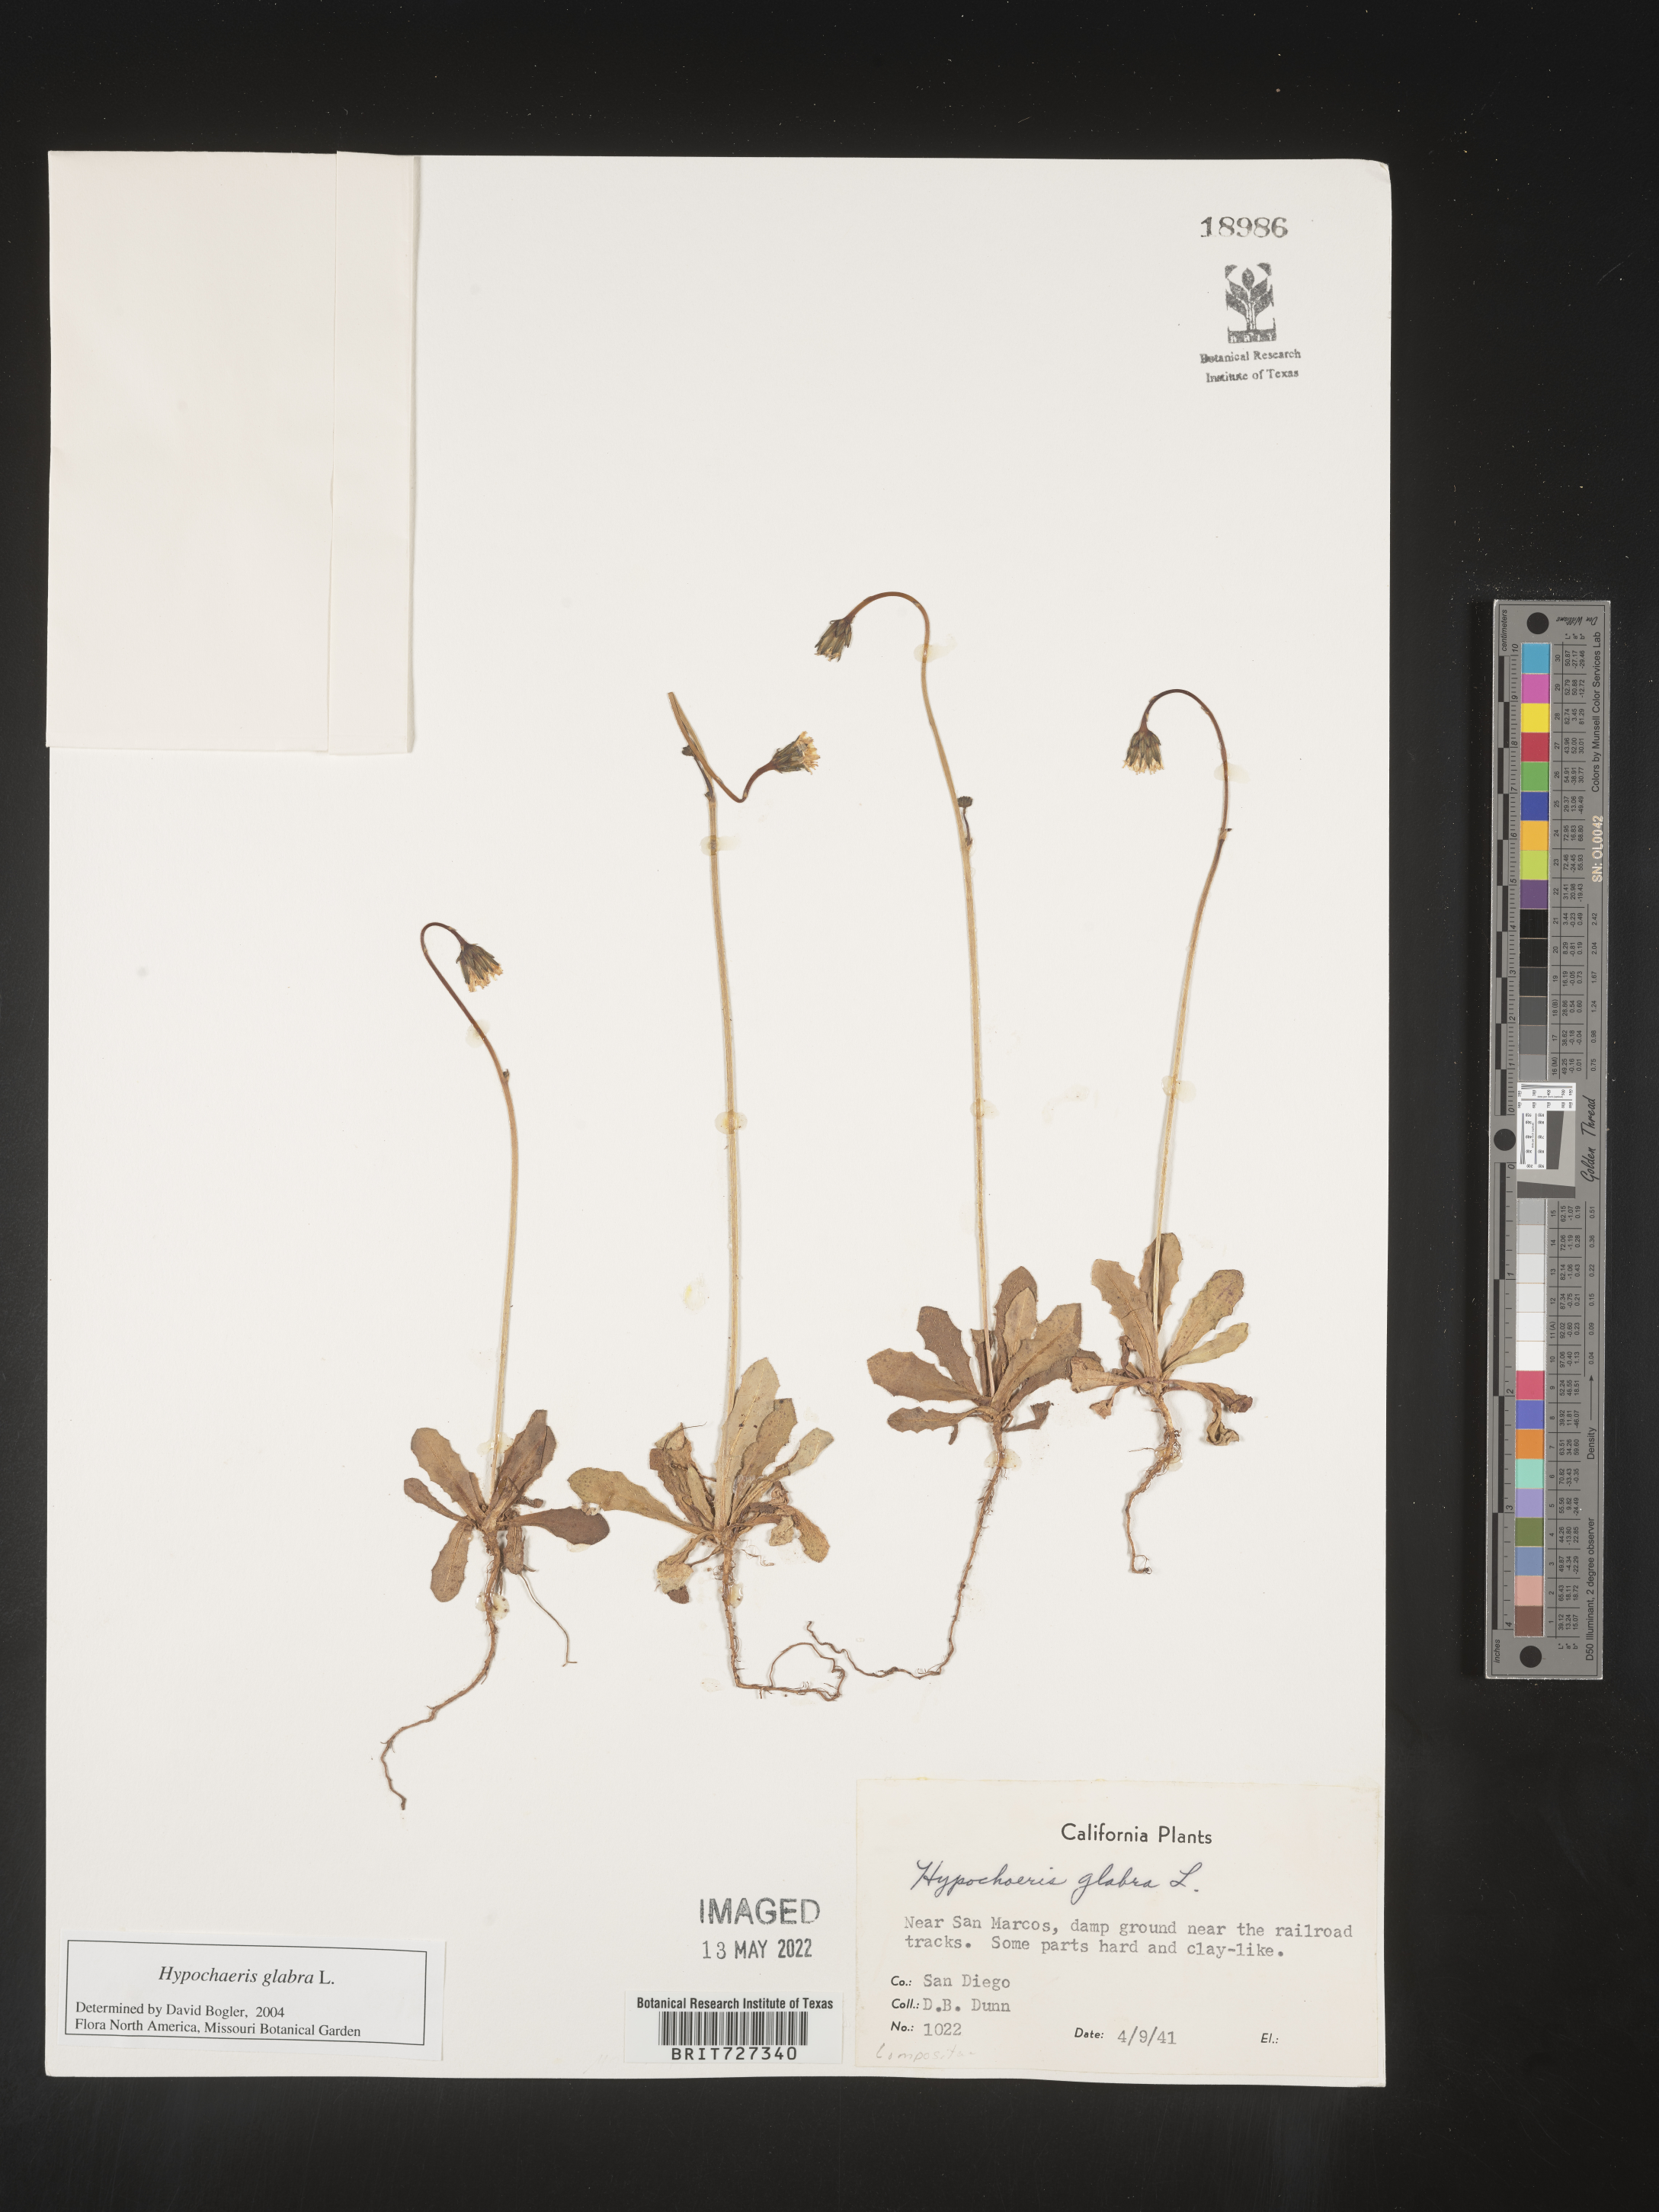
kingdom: Plantae
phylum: Tracheophyta
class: Magnoliopsida
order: Asterales
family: Asteraceae
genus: Hypochaeris
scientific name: Hypochaeris glabra
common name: Smooth catsear
